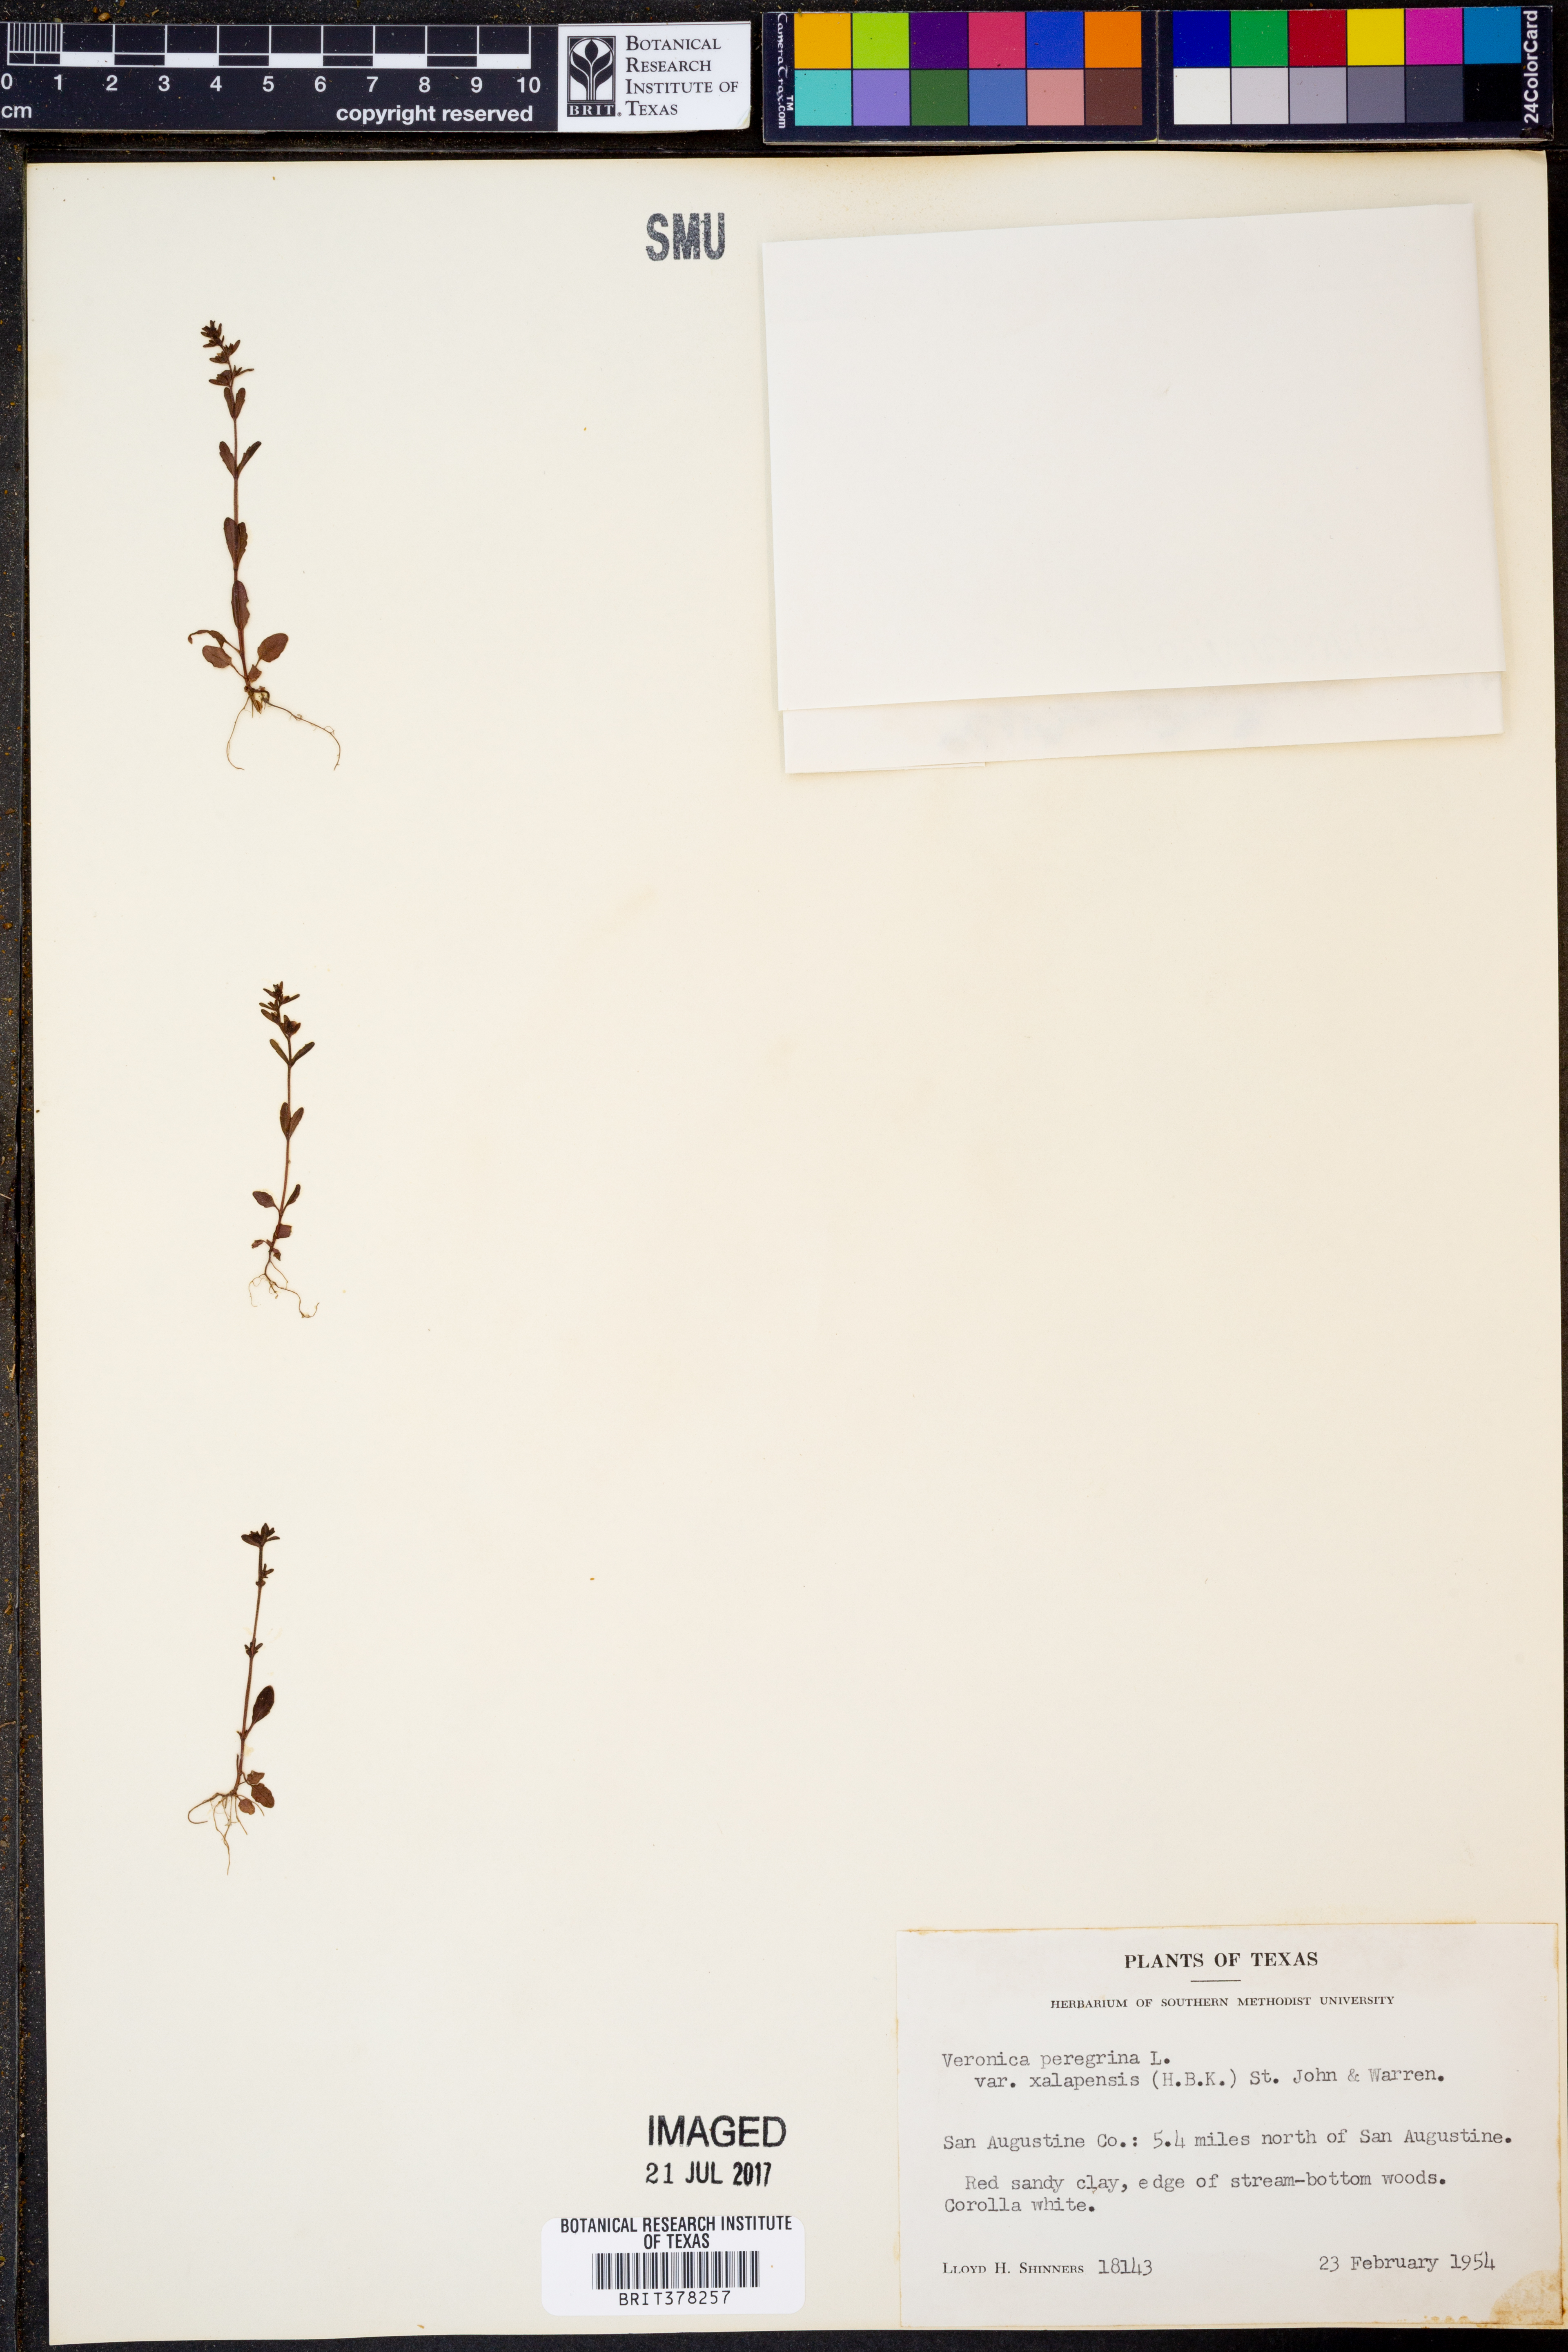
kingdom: Plantae
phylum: Tracheophyta
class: Magnoliopsida
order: Lamiales
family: Plantaginaceae
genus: Veronica
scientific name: Veronica peregrina
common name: Neckweed
